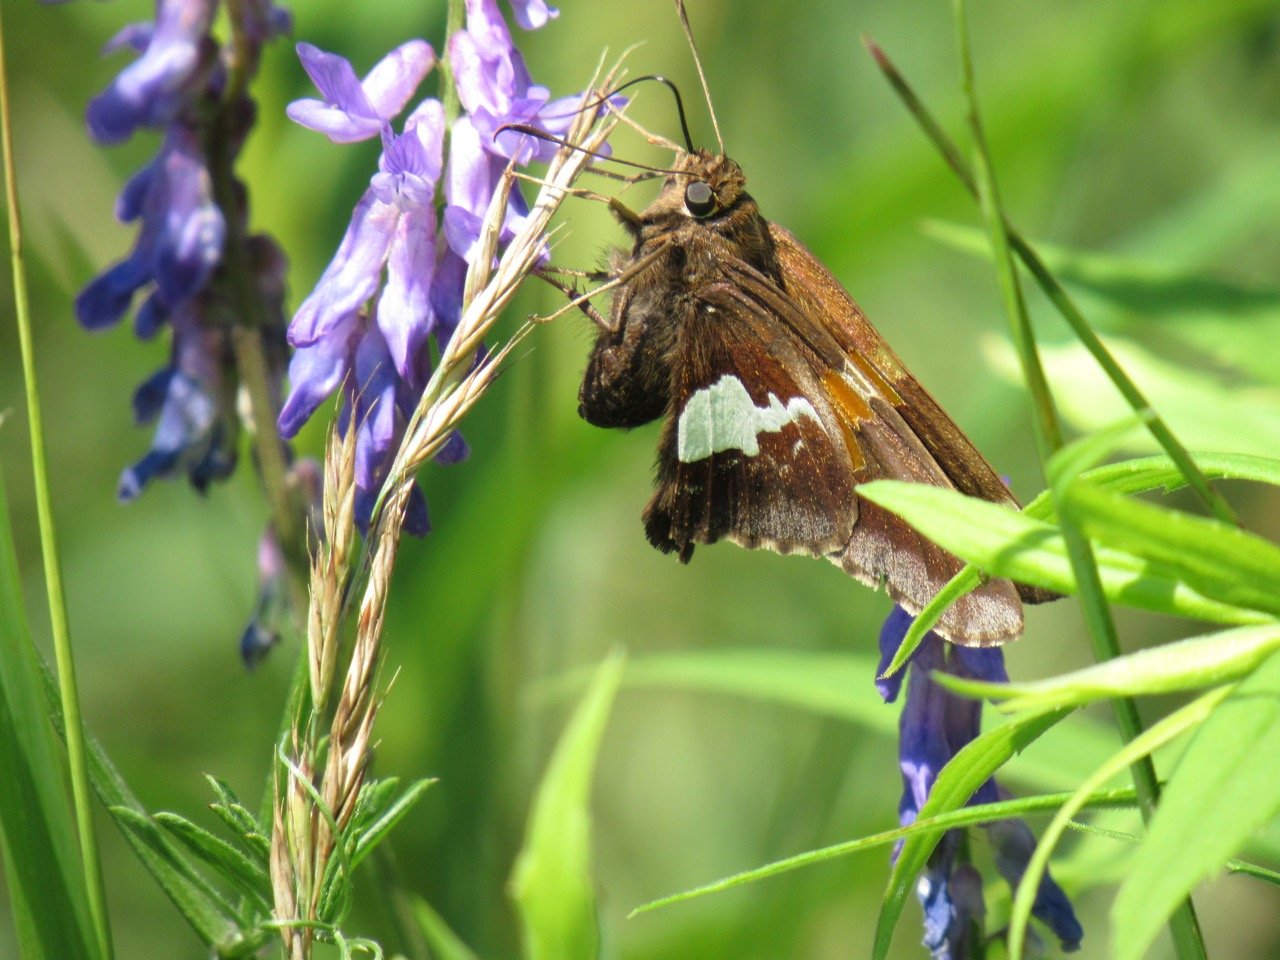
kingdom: Animalia
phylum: Arthropoda
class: Insecta
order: Lepidoptera
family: Hesperiidae
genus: Epargyreus
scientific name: Epargyreus clarus
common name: Silver-spotted Skipper
